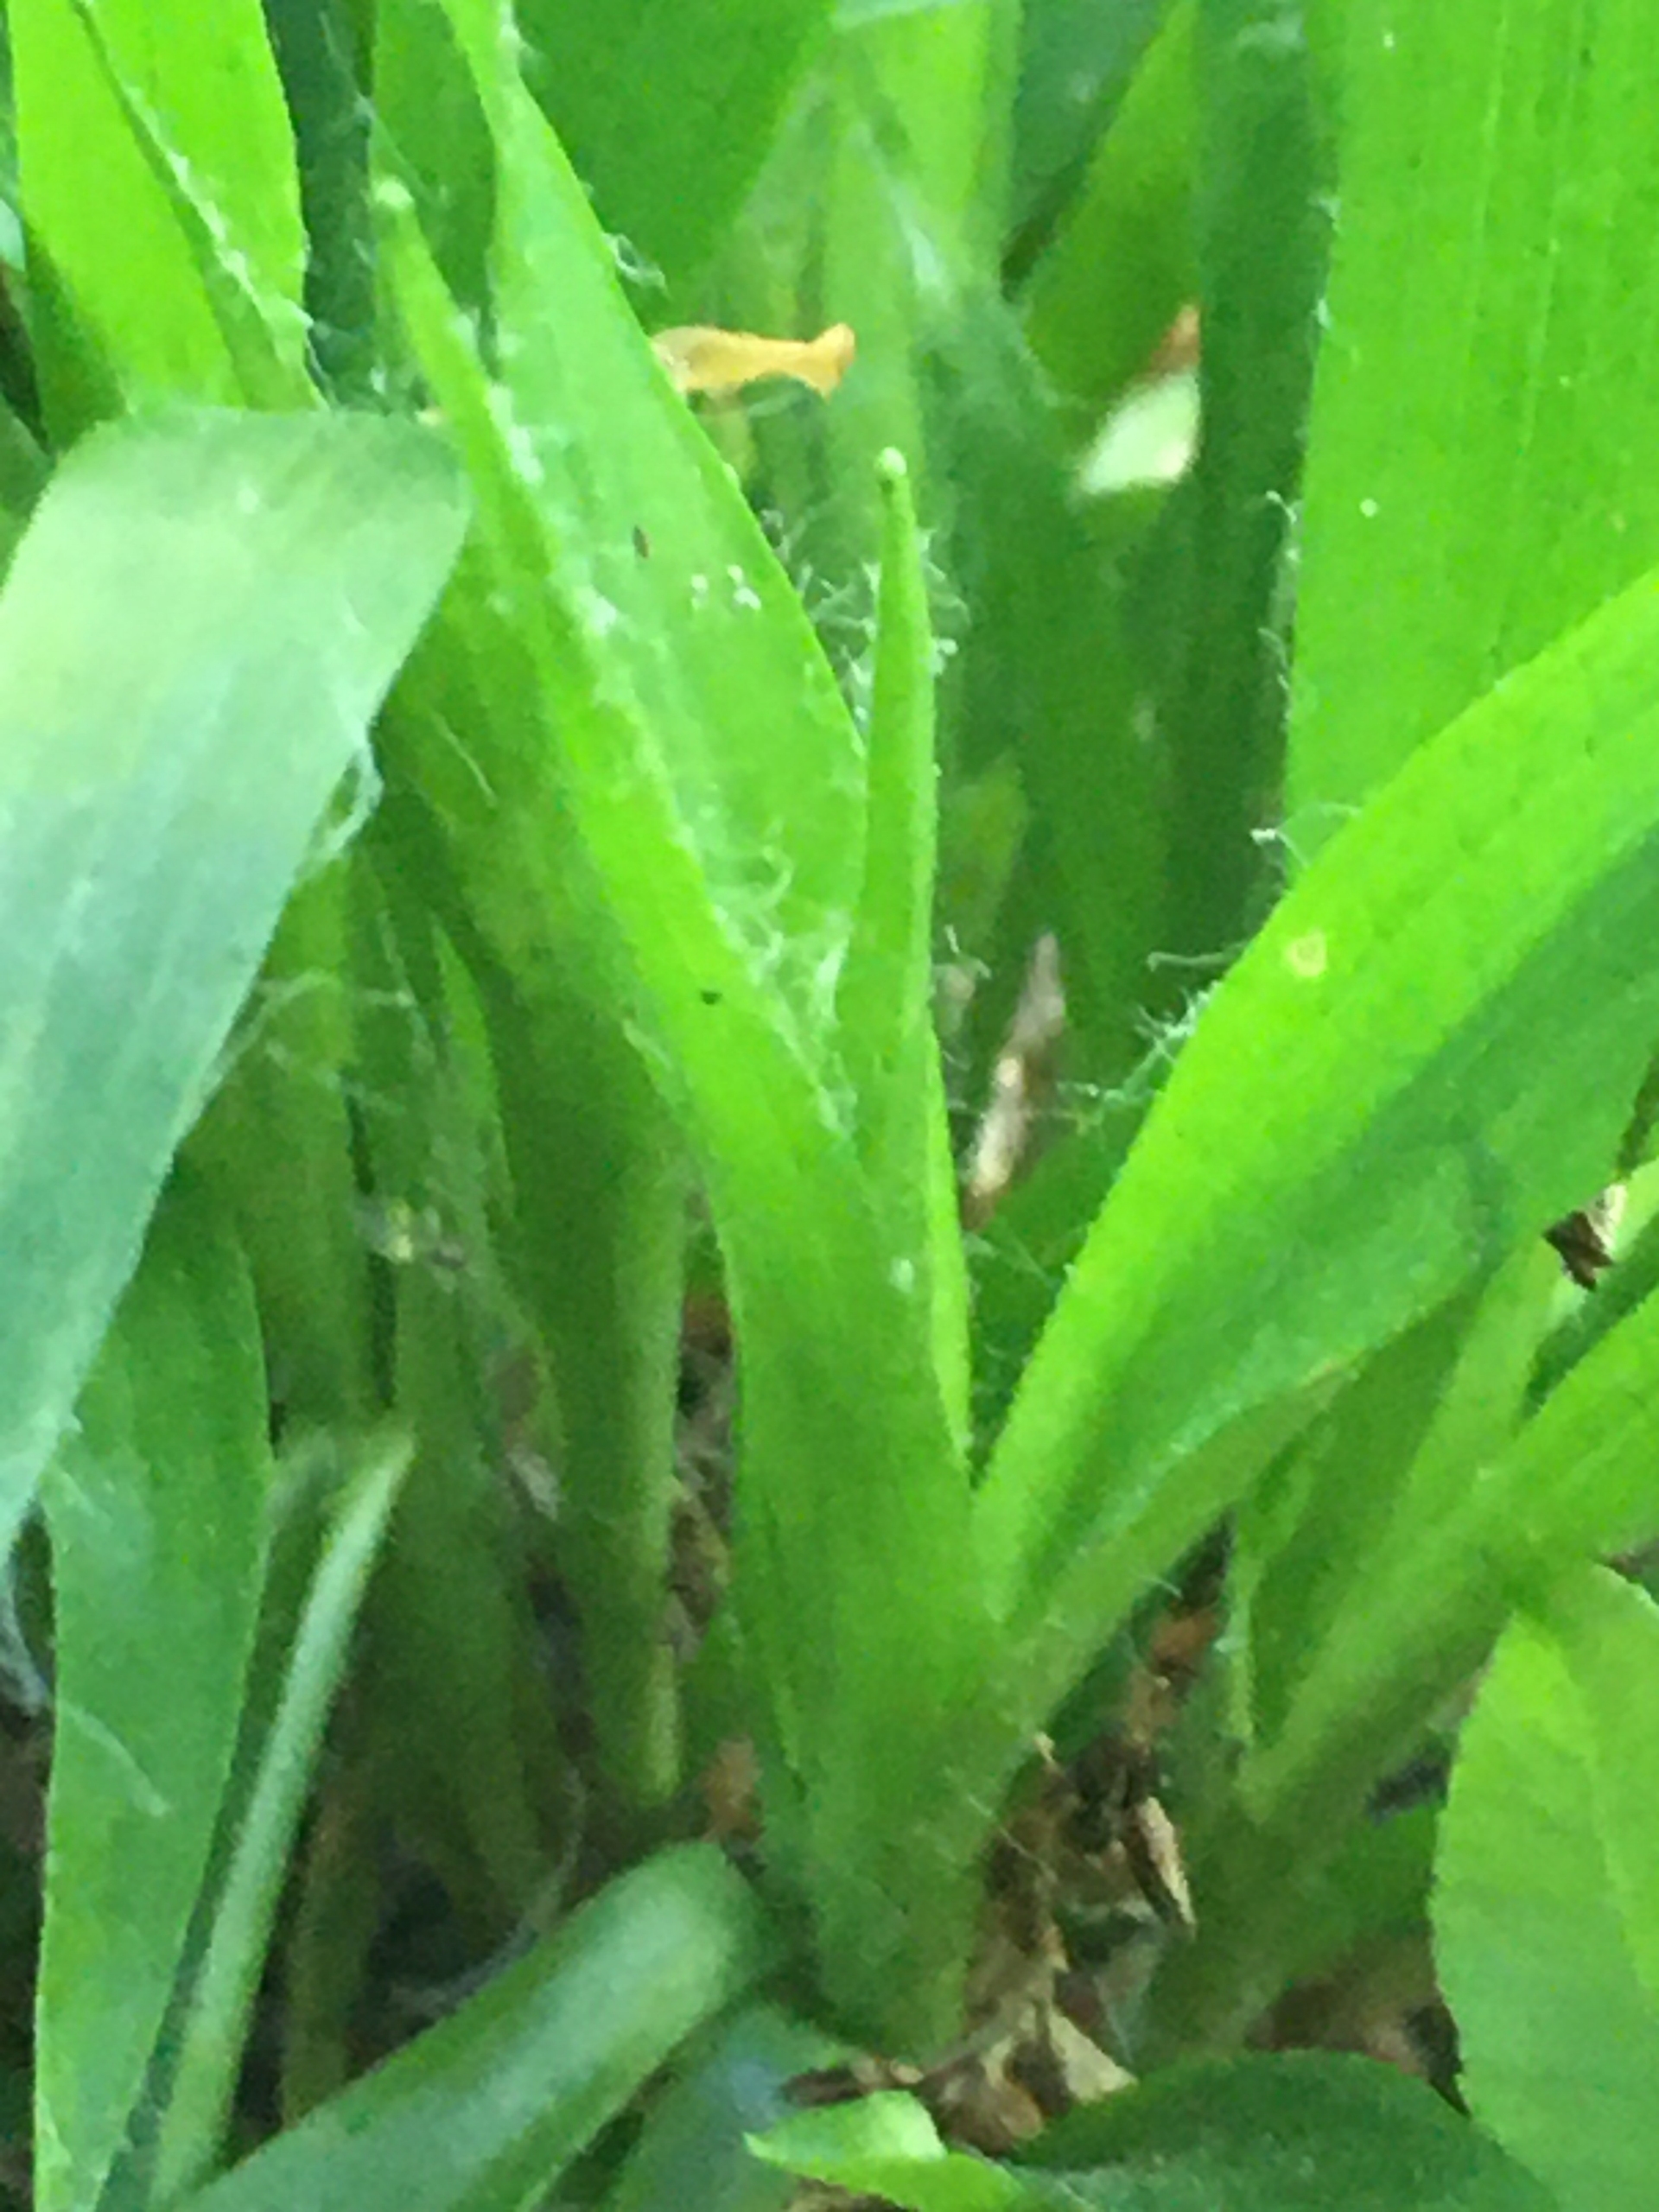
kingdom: Plantae
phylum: Tracheophyta
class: Liliopsida
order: Poales
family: Juncaceae
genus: Luzula
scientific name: Luzula pilosa
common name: Håret frytle
